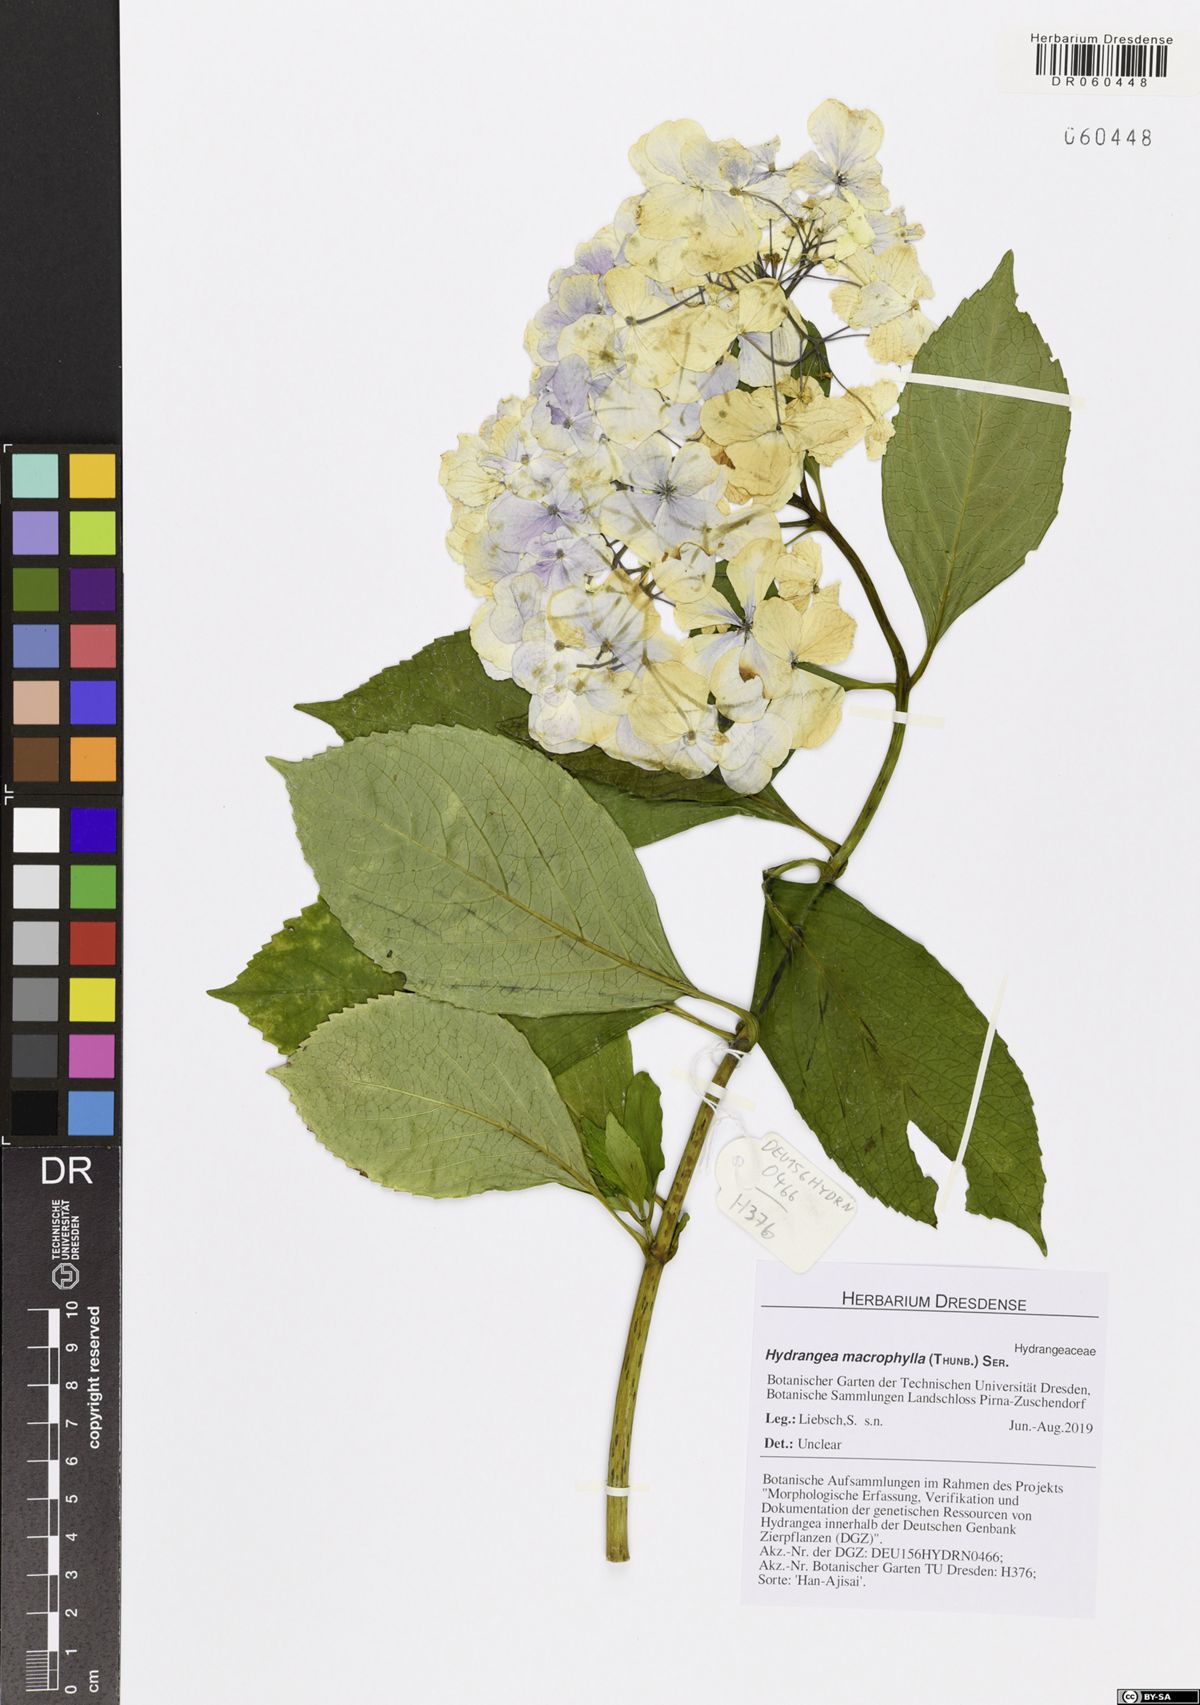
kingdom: Plantae
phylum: Tracheophyta
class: Magnoliopsida
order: Cornales
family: Hydrangeaceae
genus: Hydrangea
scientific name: Hydrangea macrophylla
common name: Hydrangea
